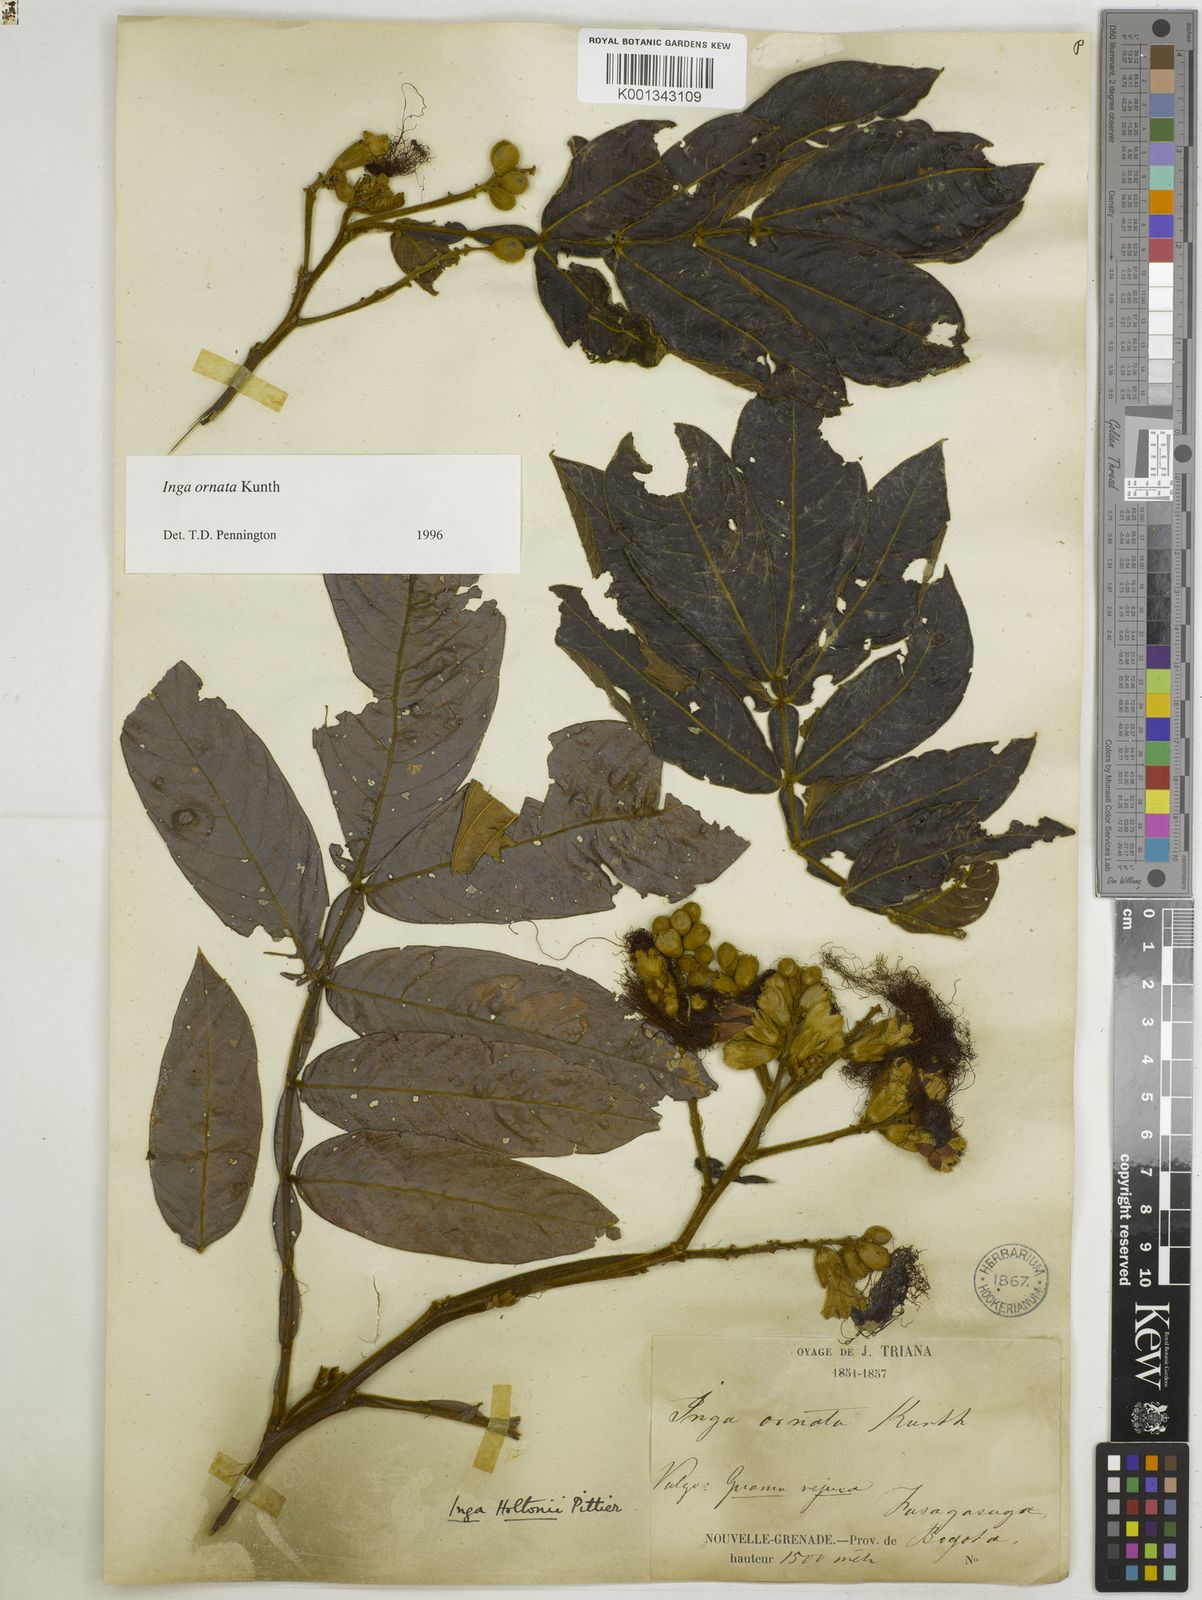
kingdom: Plantae
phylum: Tracheophyta
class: Magnoliopsida
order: Fabales
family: Fabaceae
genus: Inga
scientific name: Inga ornata
